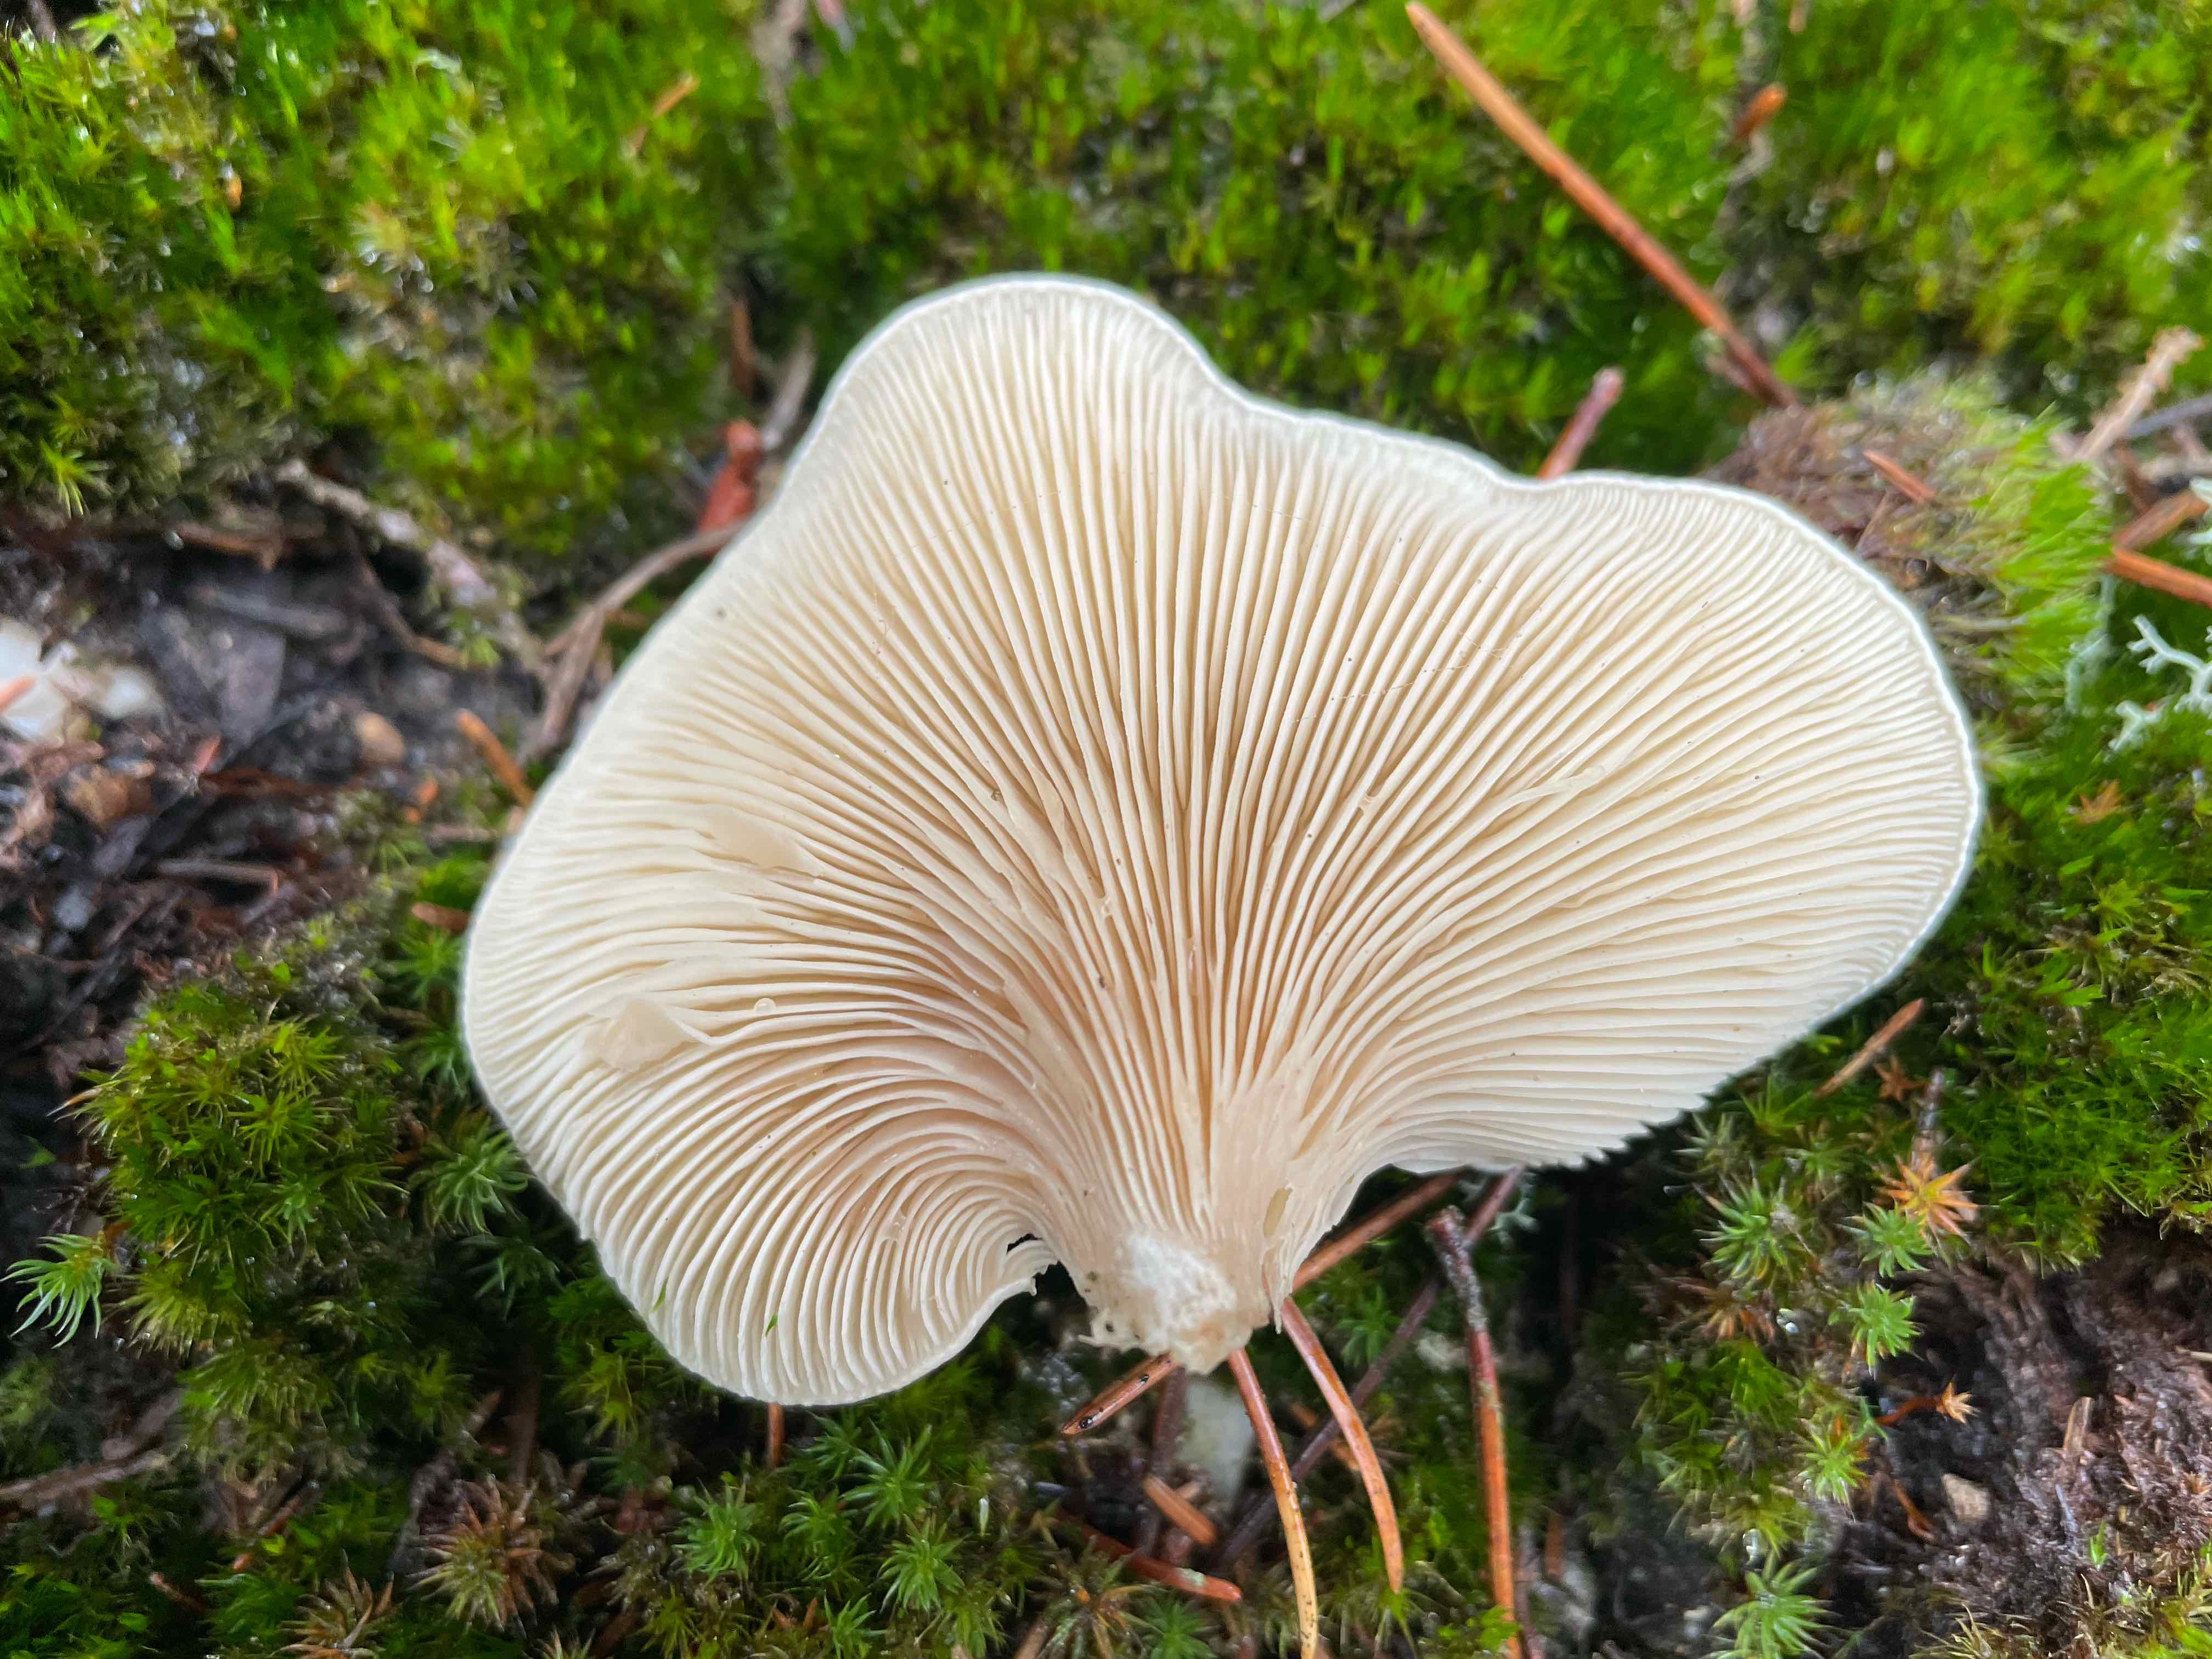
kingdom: Fungi
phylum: Basidiomycota
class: Agaricomycetes
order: Agaricales
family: Entolomataceae
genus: Clitopilus
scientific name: Clitopilus prunulus
